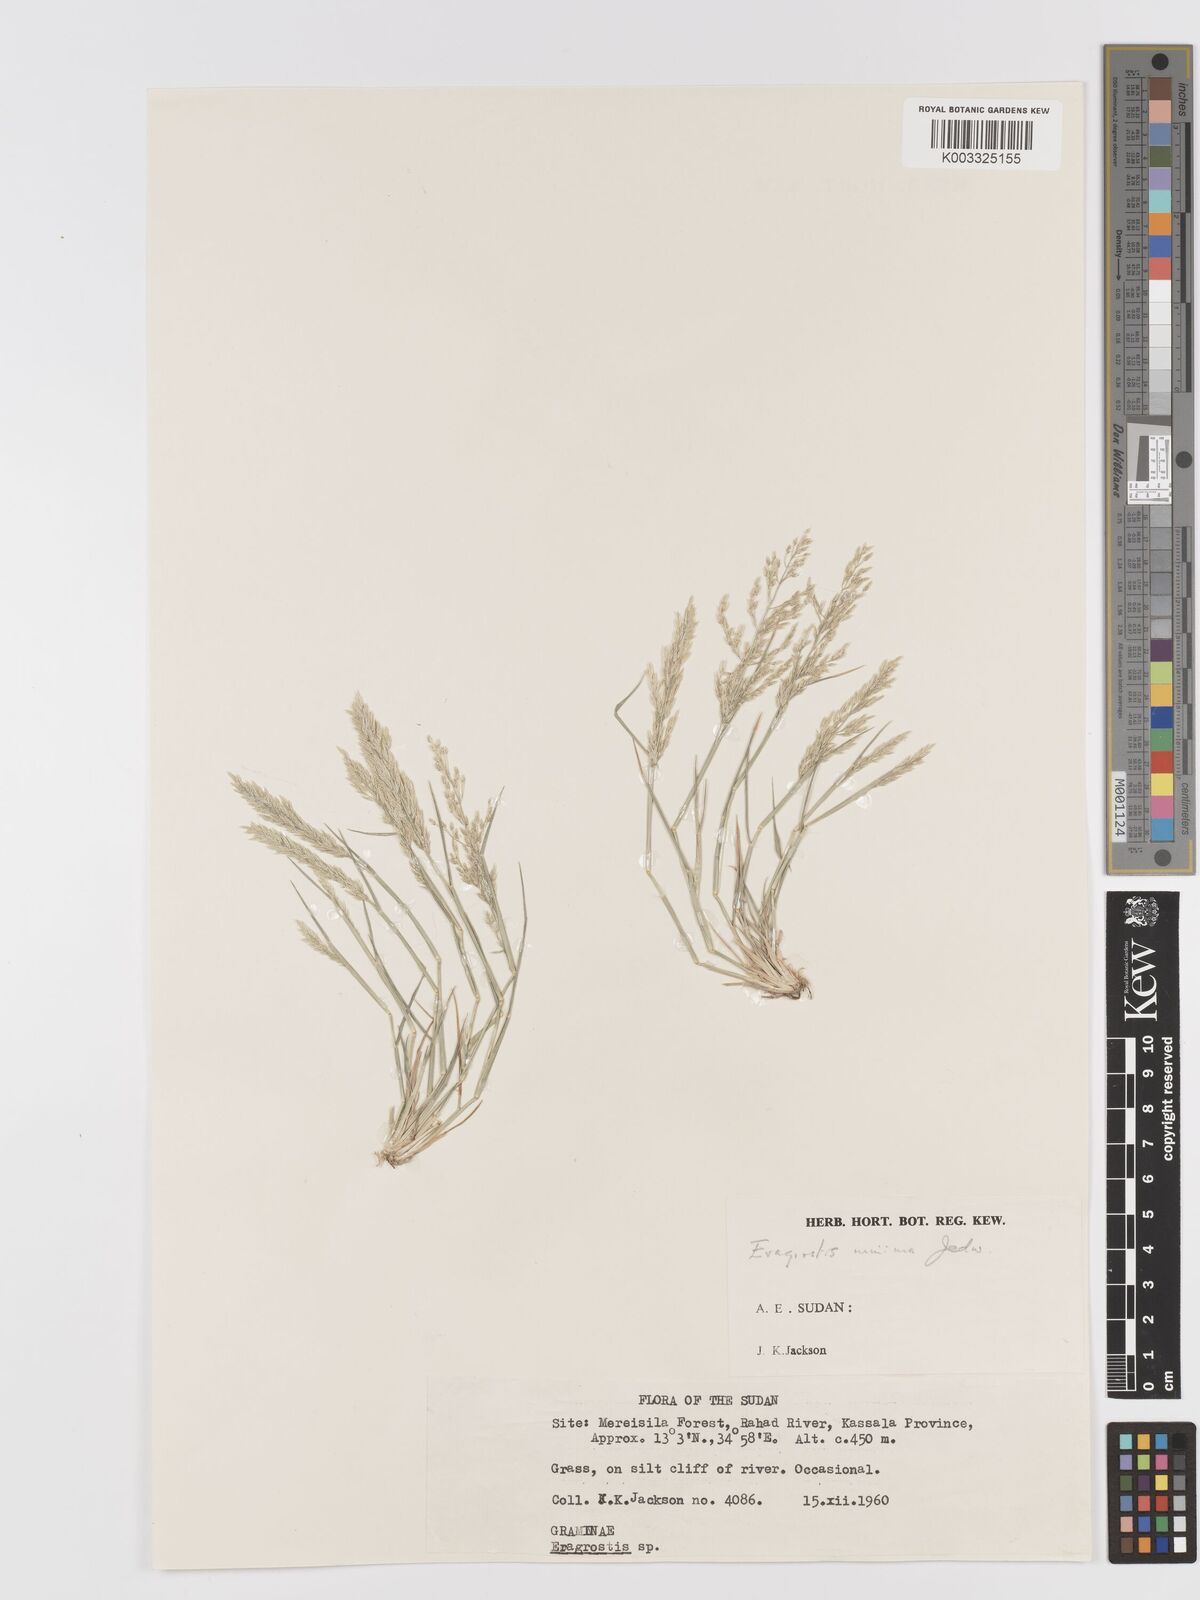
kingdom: Plantae
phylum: Tracheophyta
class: Liliopsida
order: Poales
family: Poaceae
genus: Eragrostis
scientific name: Eragrostis aegyptiaca
